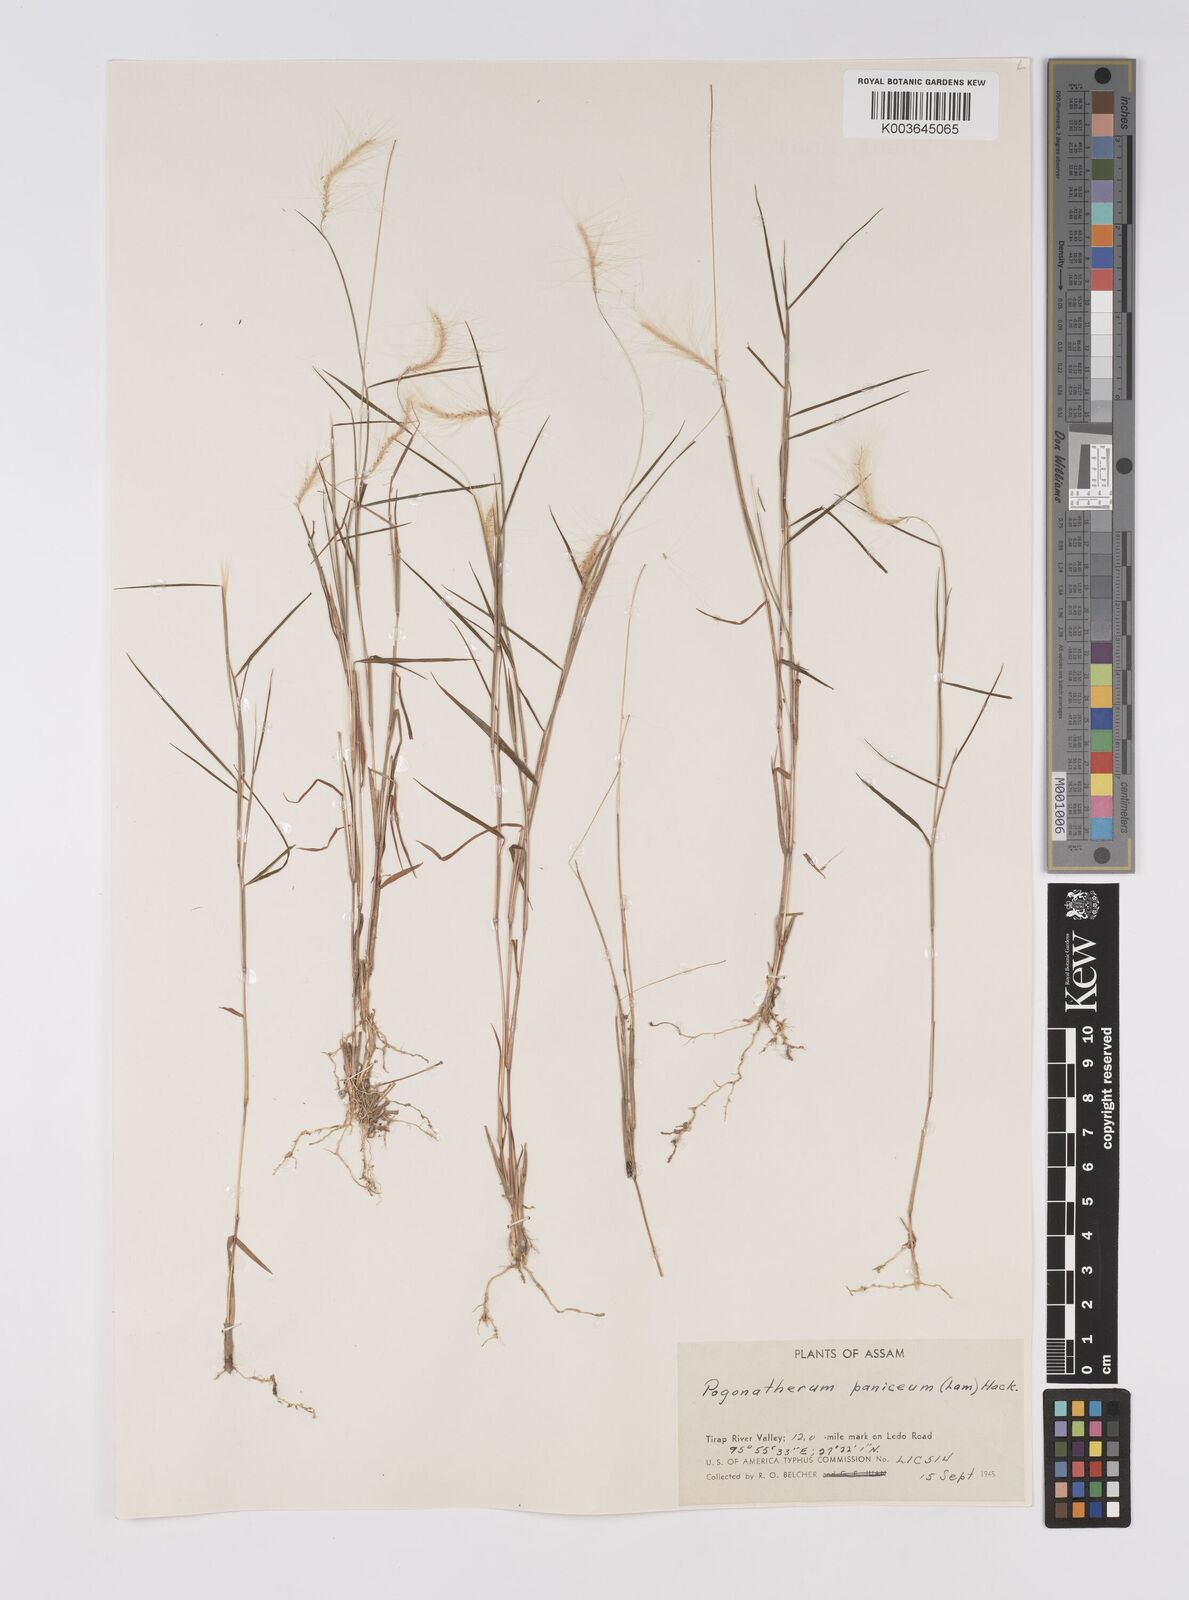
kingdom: Plantae
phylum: Tracheophyta
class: Liliopsida
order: Poales
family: Poaceae
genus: Pogonatherum
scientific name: Pogonatherum crinitum
